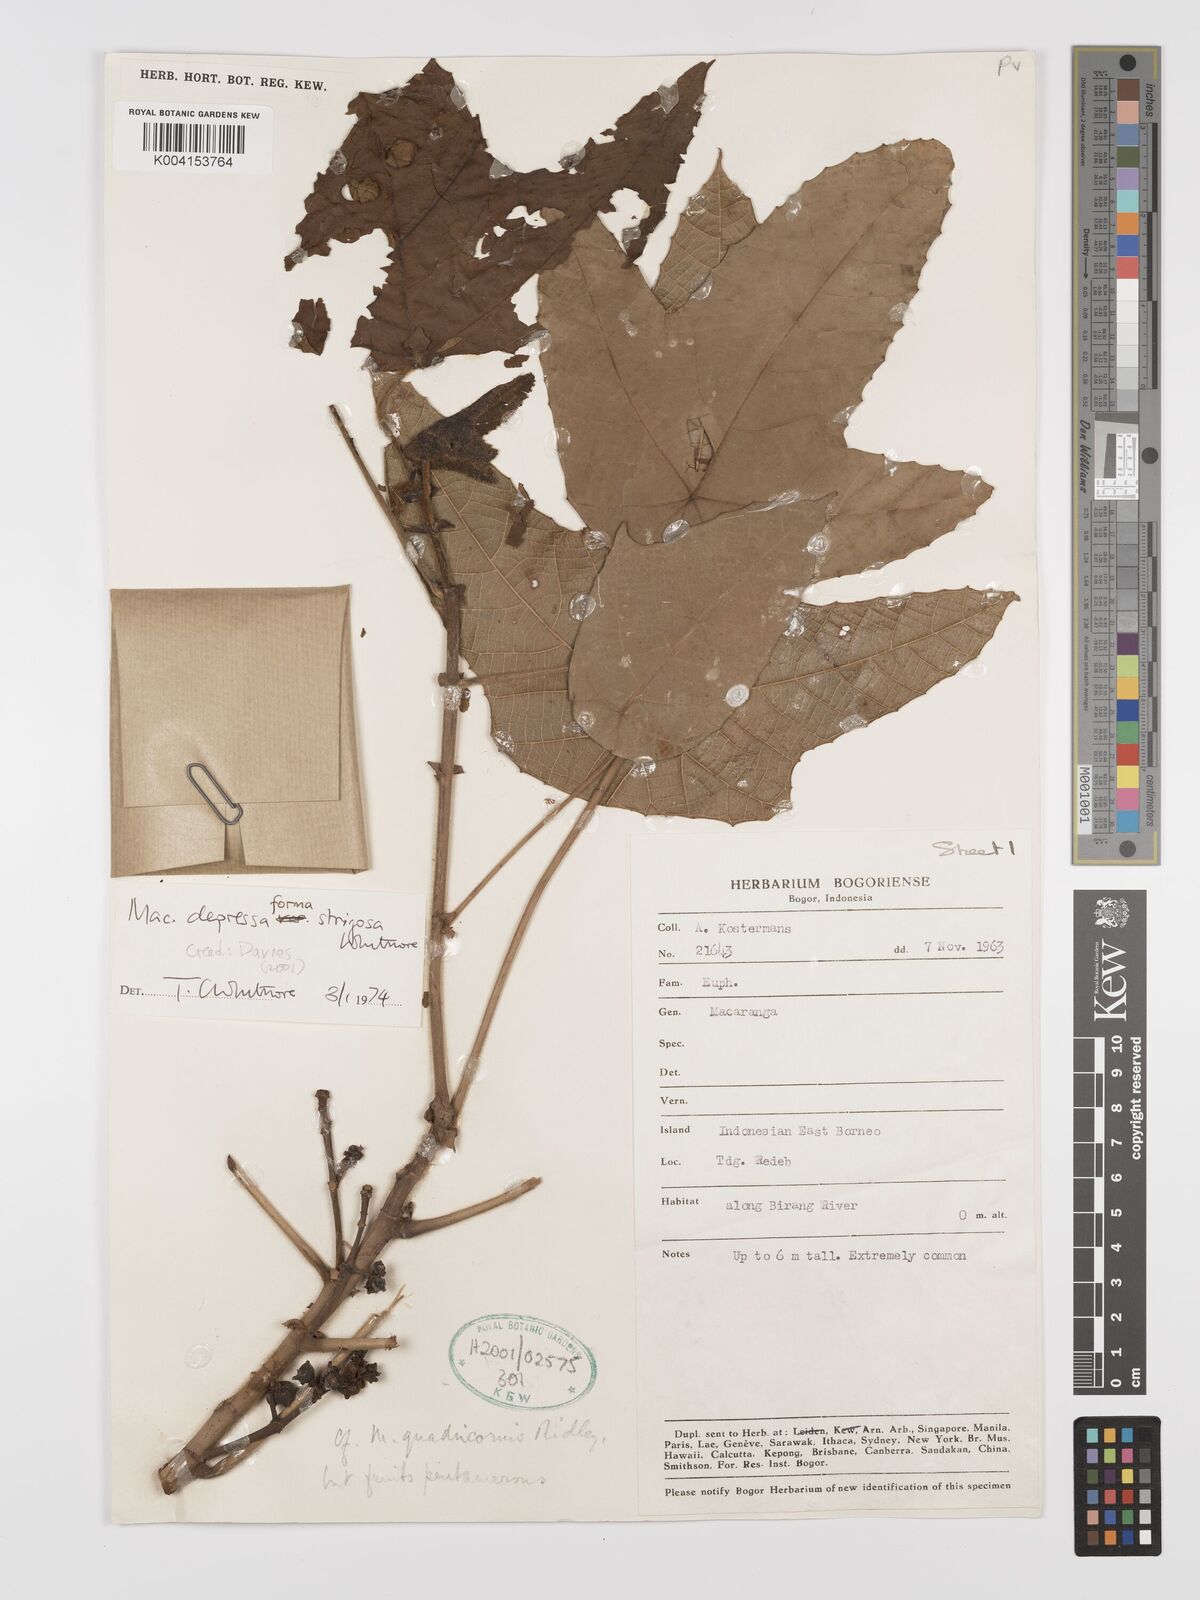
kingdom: Plantae
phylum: Tracheophyta
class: Magnoliopsida
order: Malpighiales
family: Euphorbiaceae
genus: Macaranga
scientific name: Macaranga depressa
